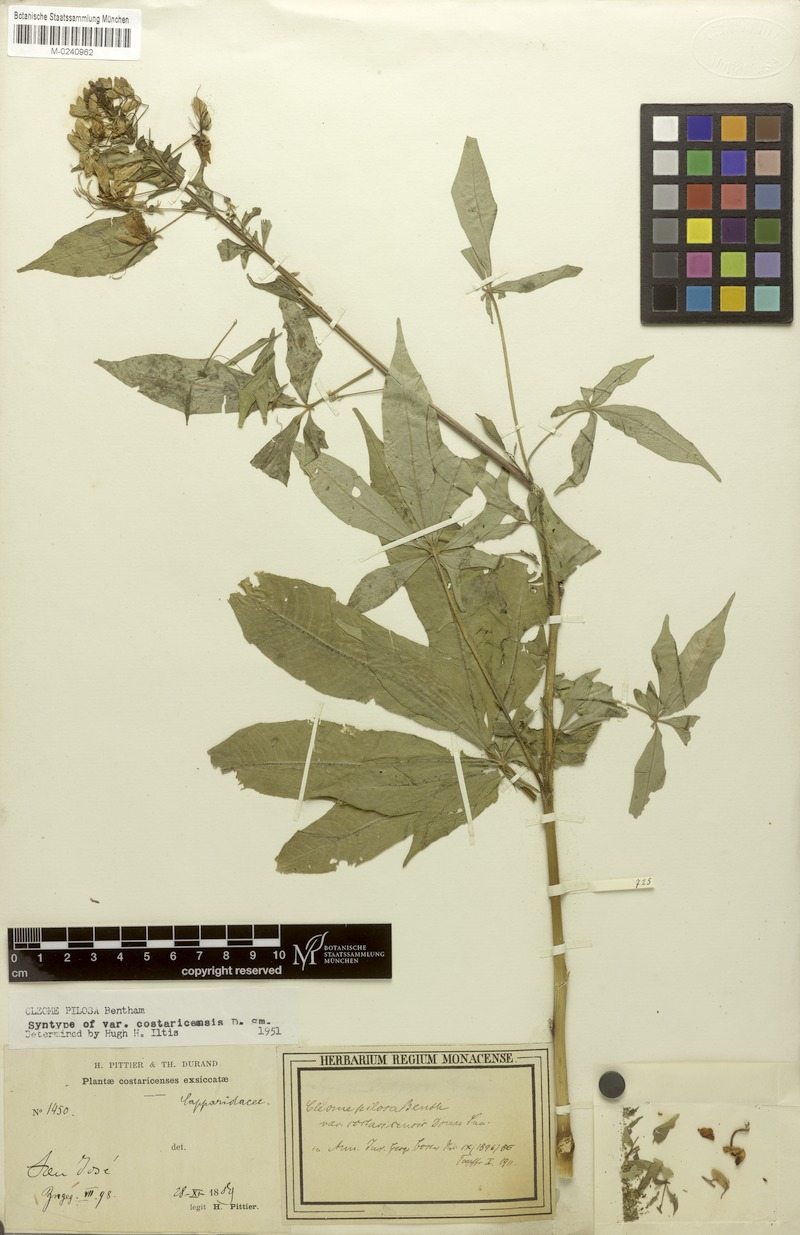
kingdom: Plantae
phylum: Tracheophyta
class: Magnoliopsida
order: Brassicales
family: Cleomaceae
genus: Cochranella
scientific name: Cochranella pilosa
